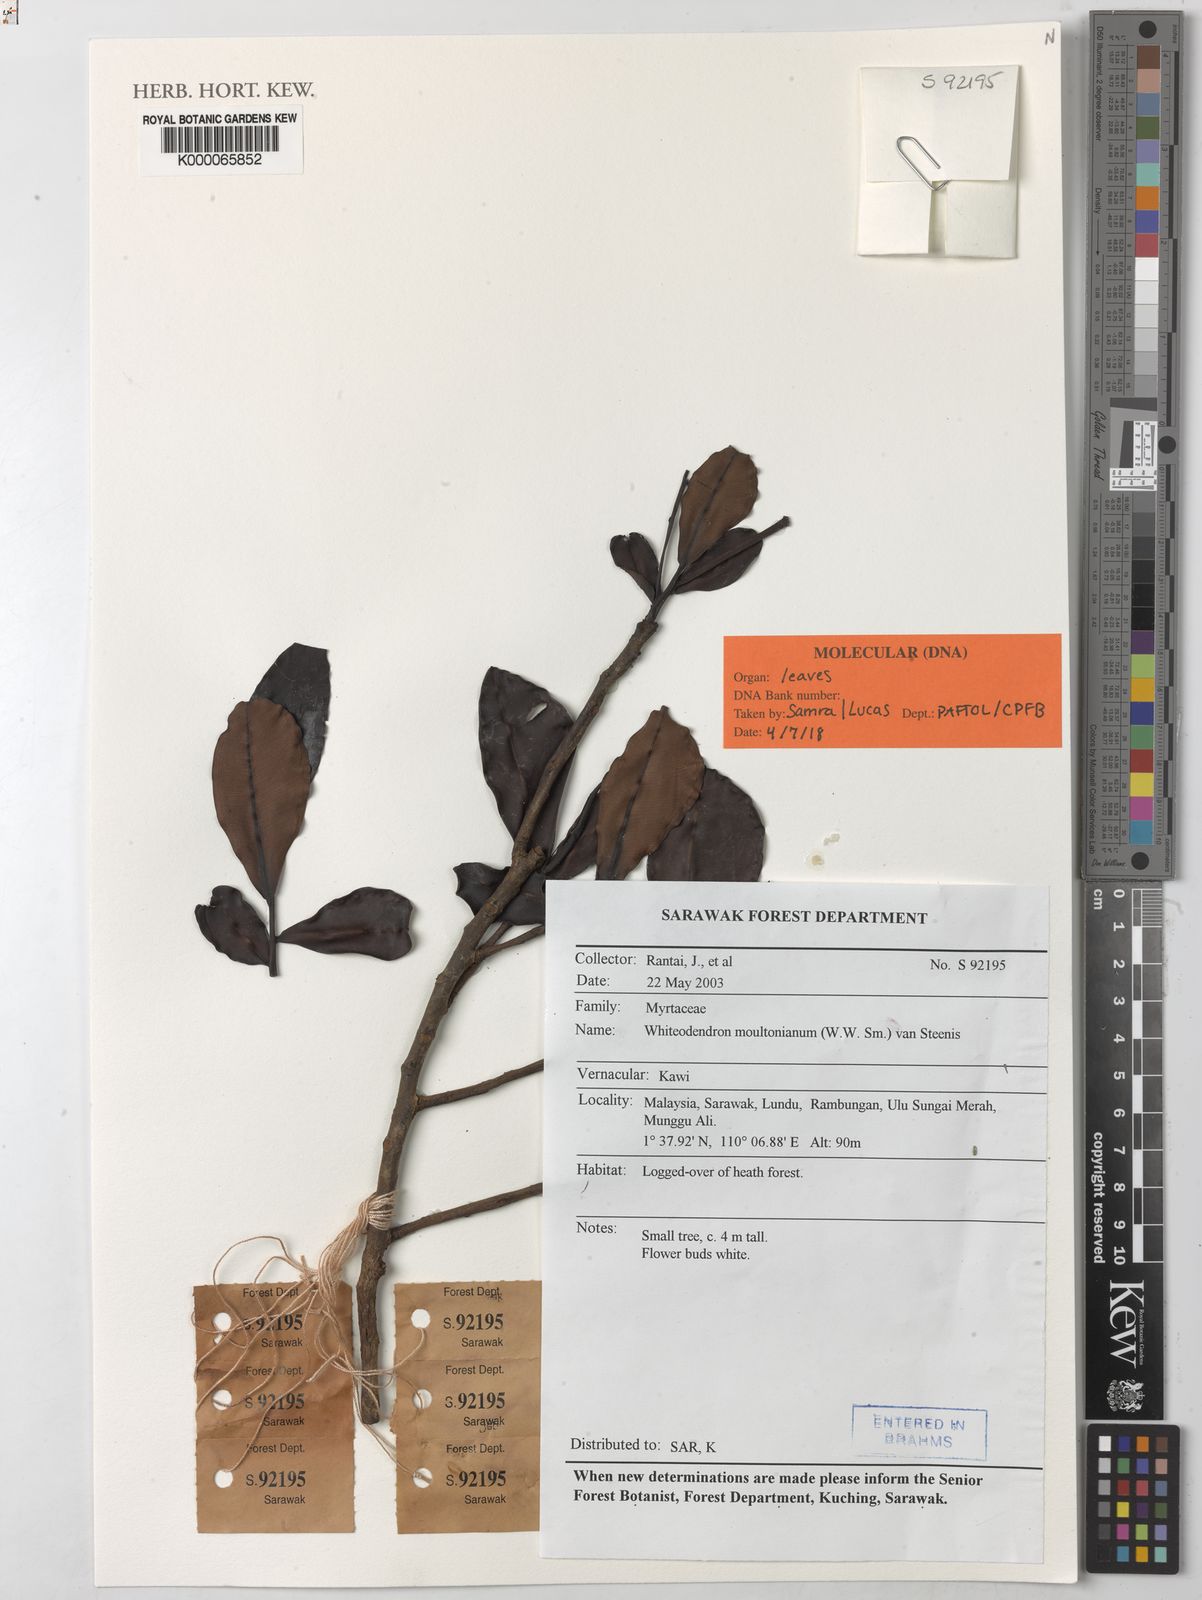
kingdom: Plantae
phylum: Tracheophyta
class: Magnoliopsida
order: Myrtales
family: Myrtaceae
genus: Whiteodendron
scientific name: Whiteodendron moultonianum
